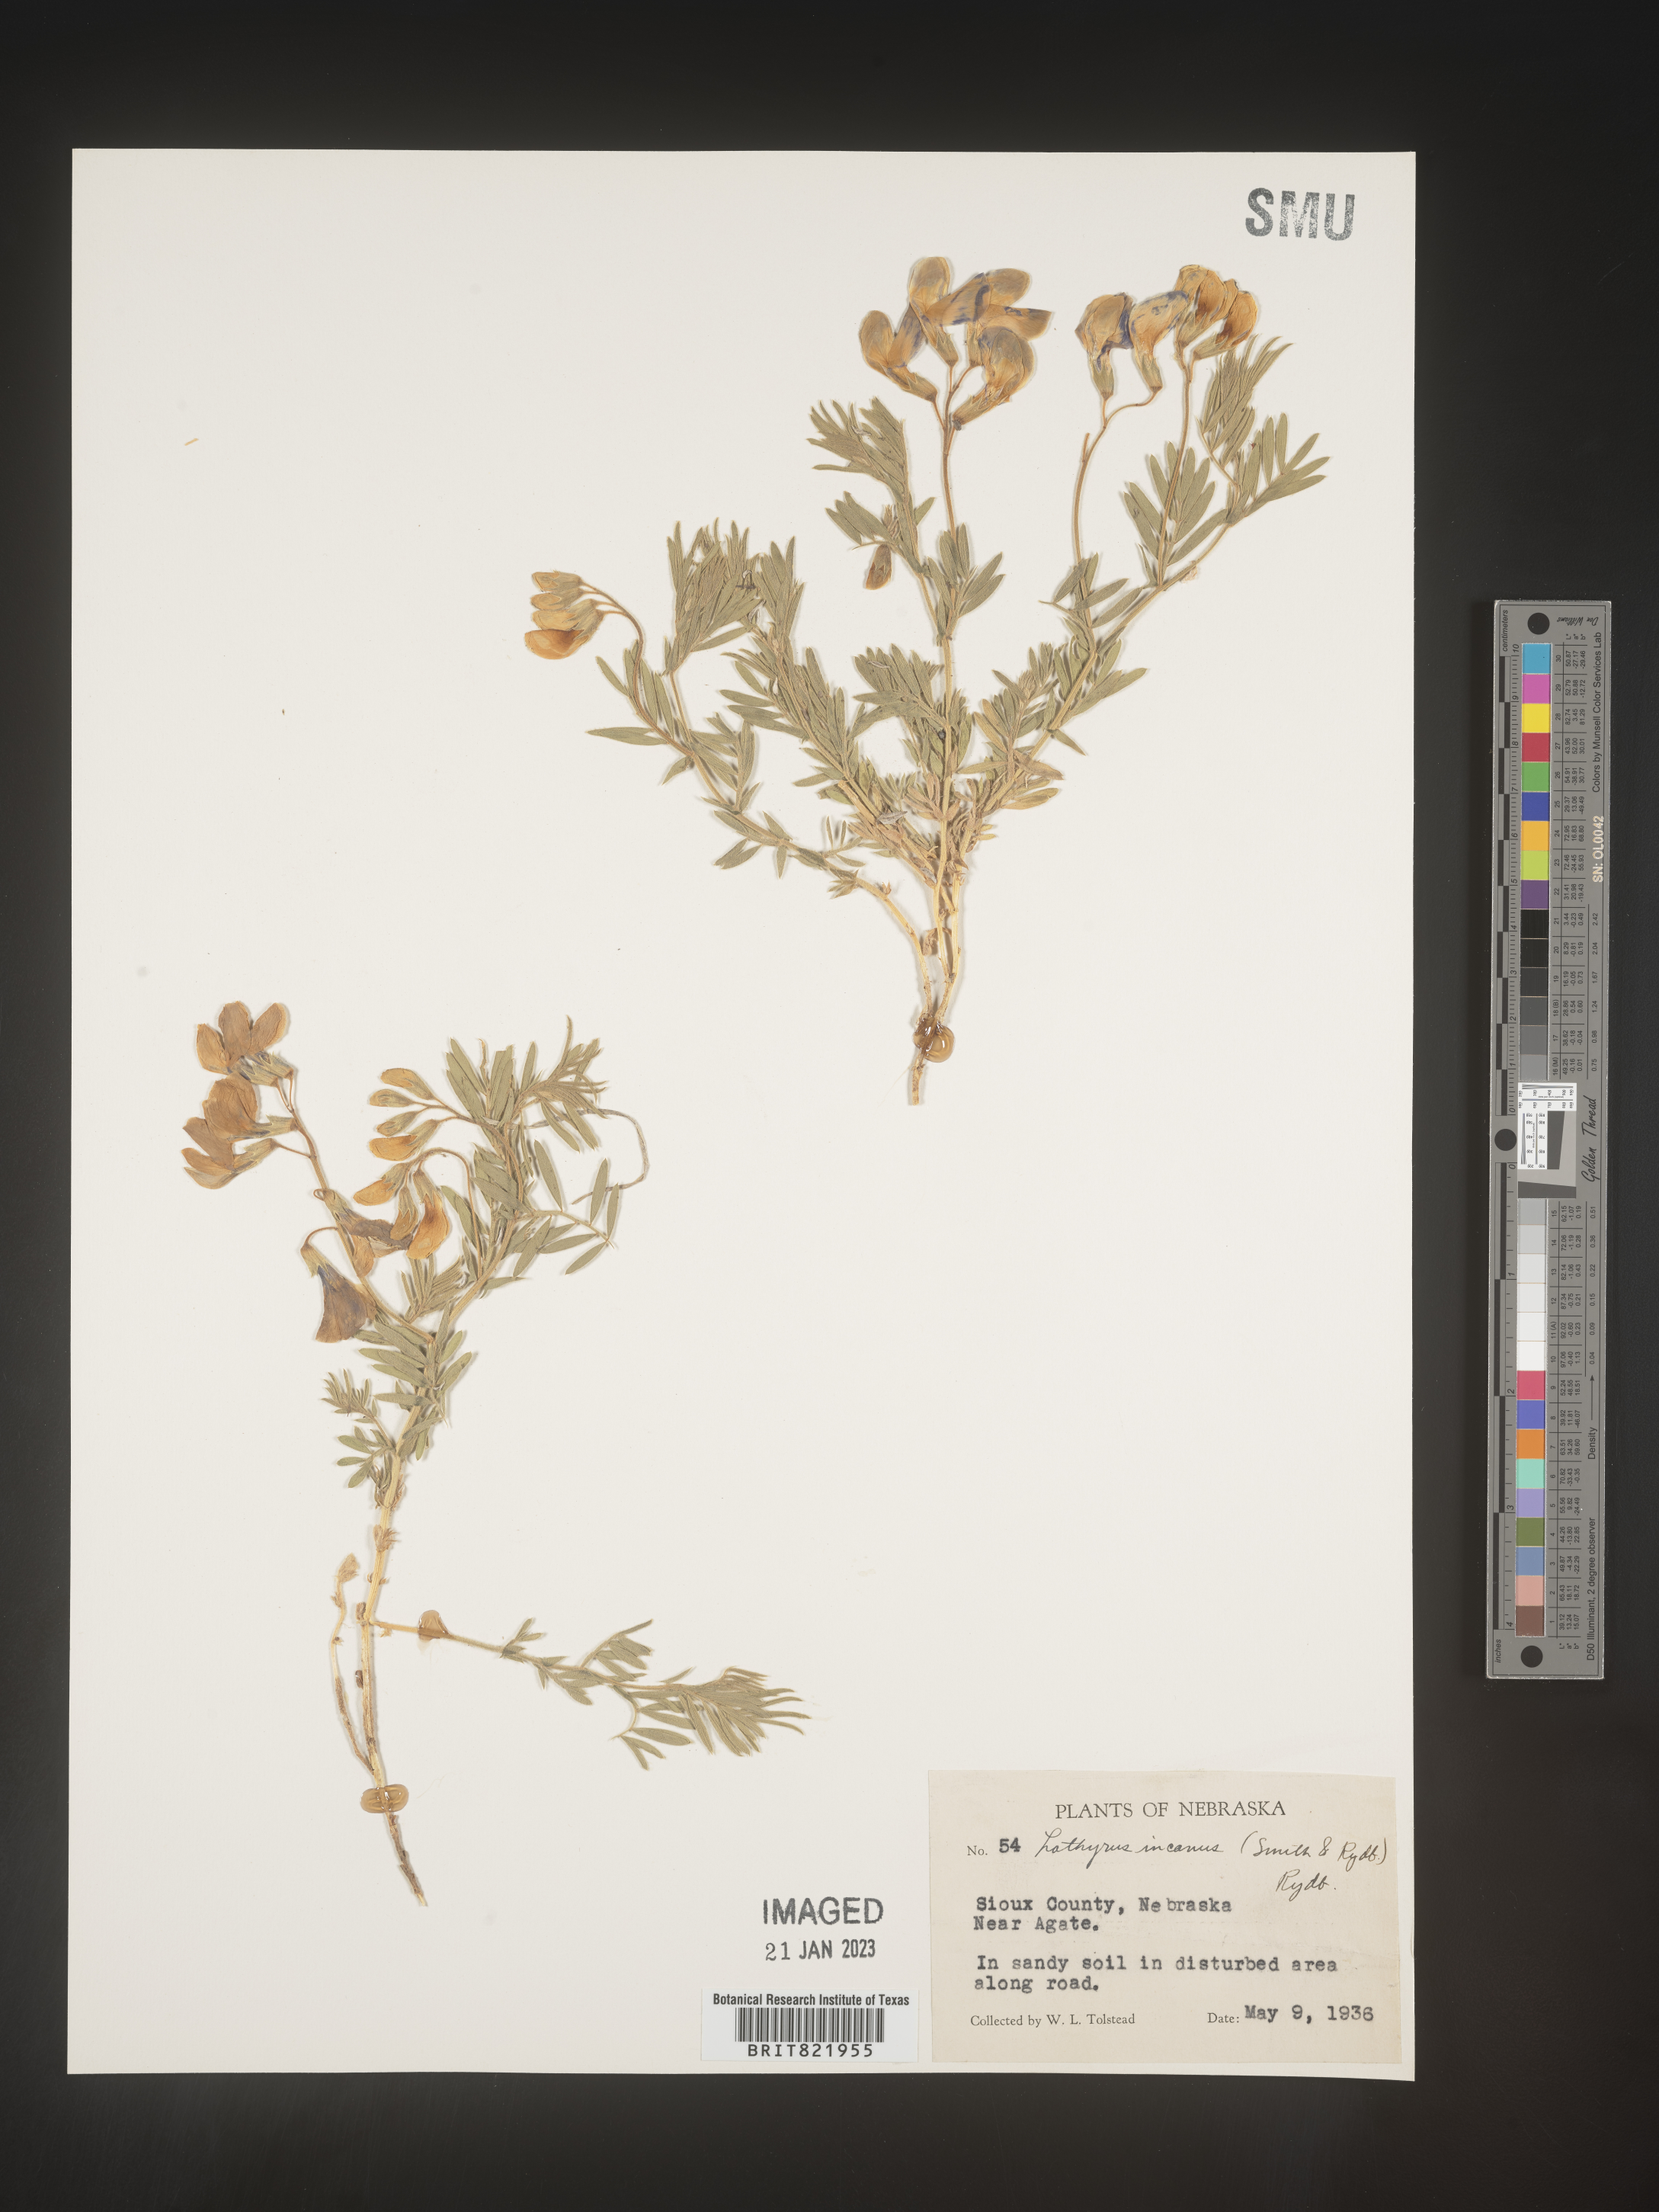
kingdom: Plantae
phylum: Tracheophyta
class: Magnoliopsida
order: Fabales
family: Fabaceae
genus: Lathyrus
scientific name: Lathyrus hirsutus
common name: Hairy vetchling
